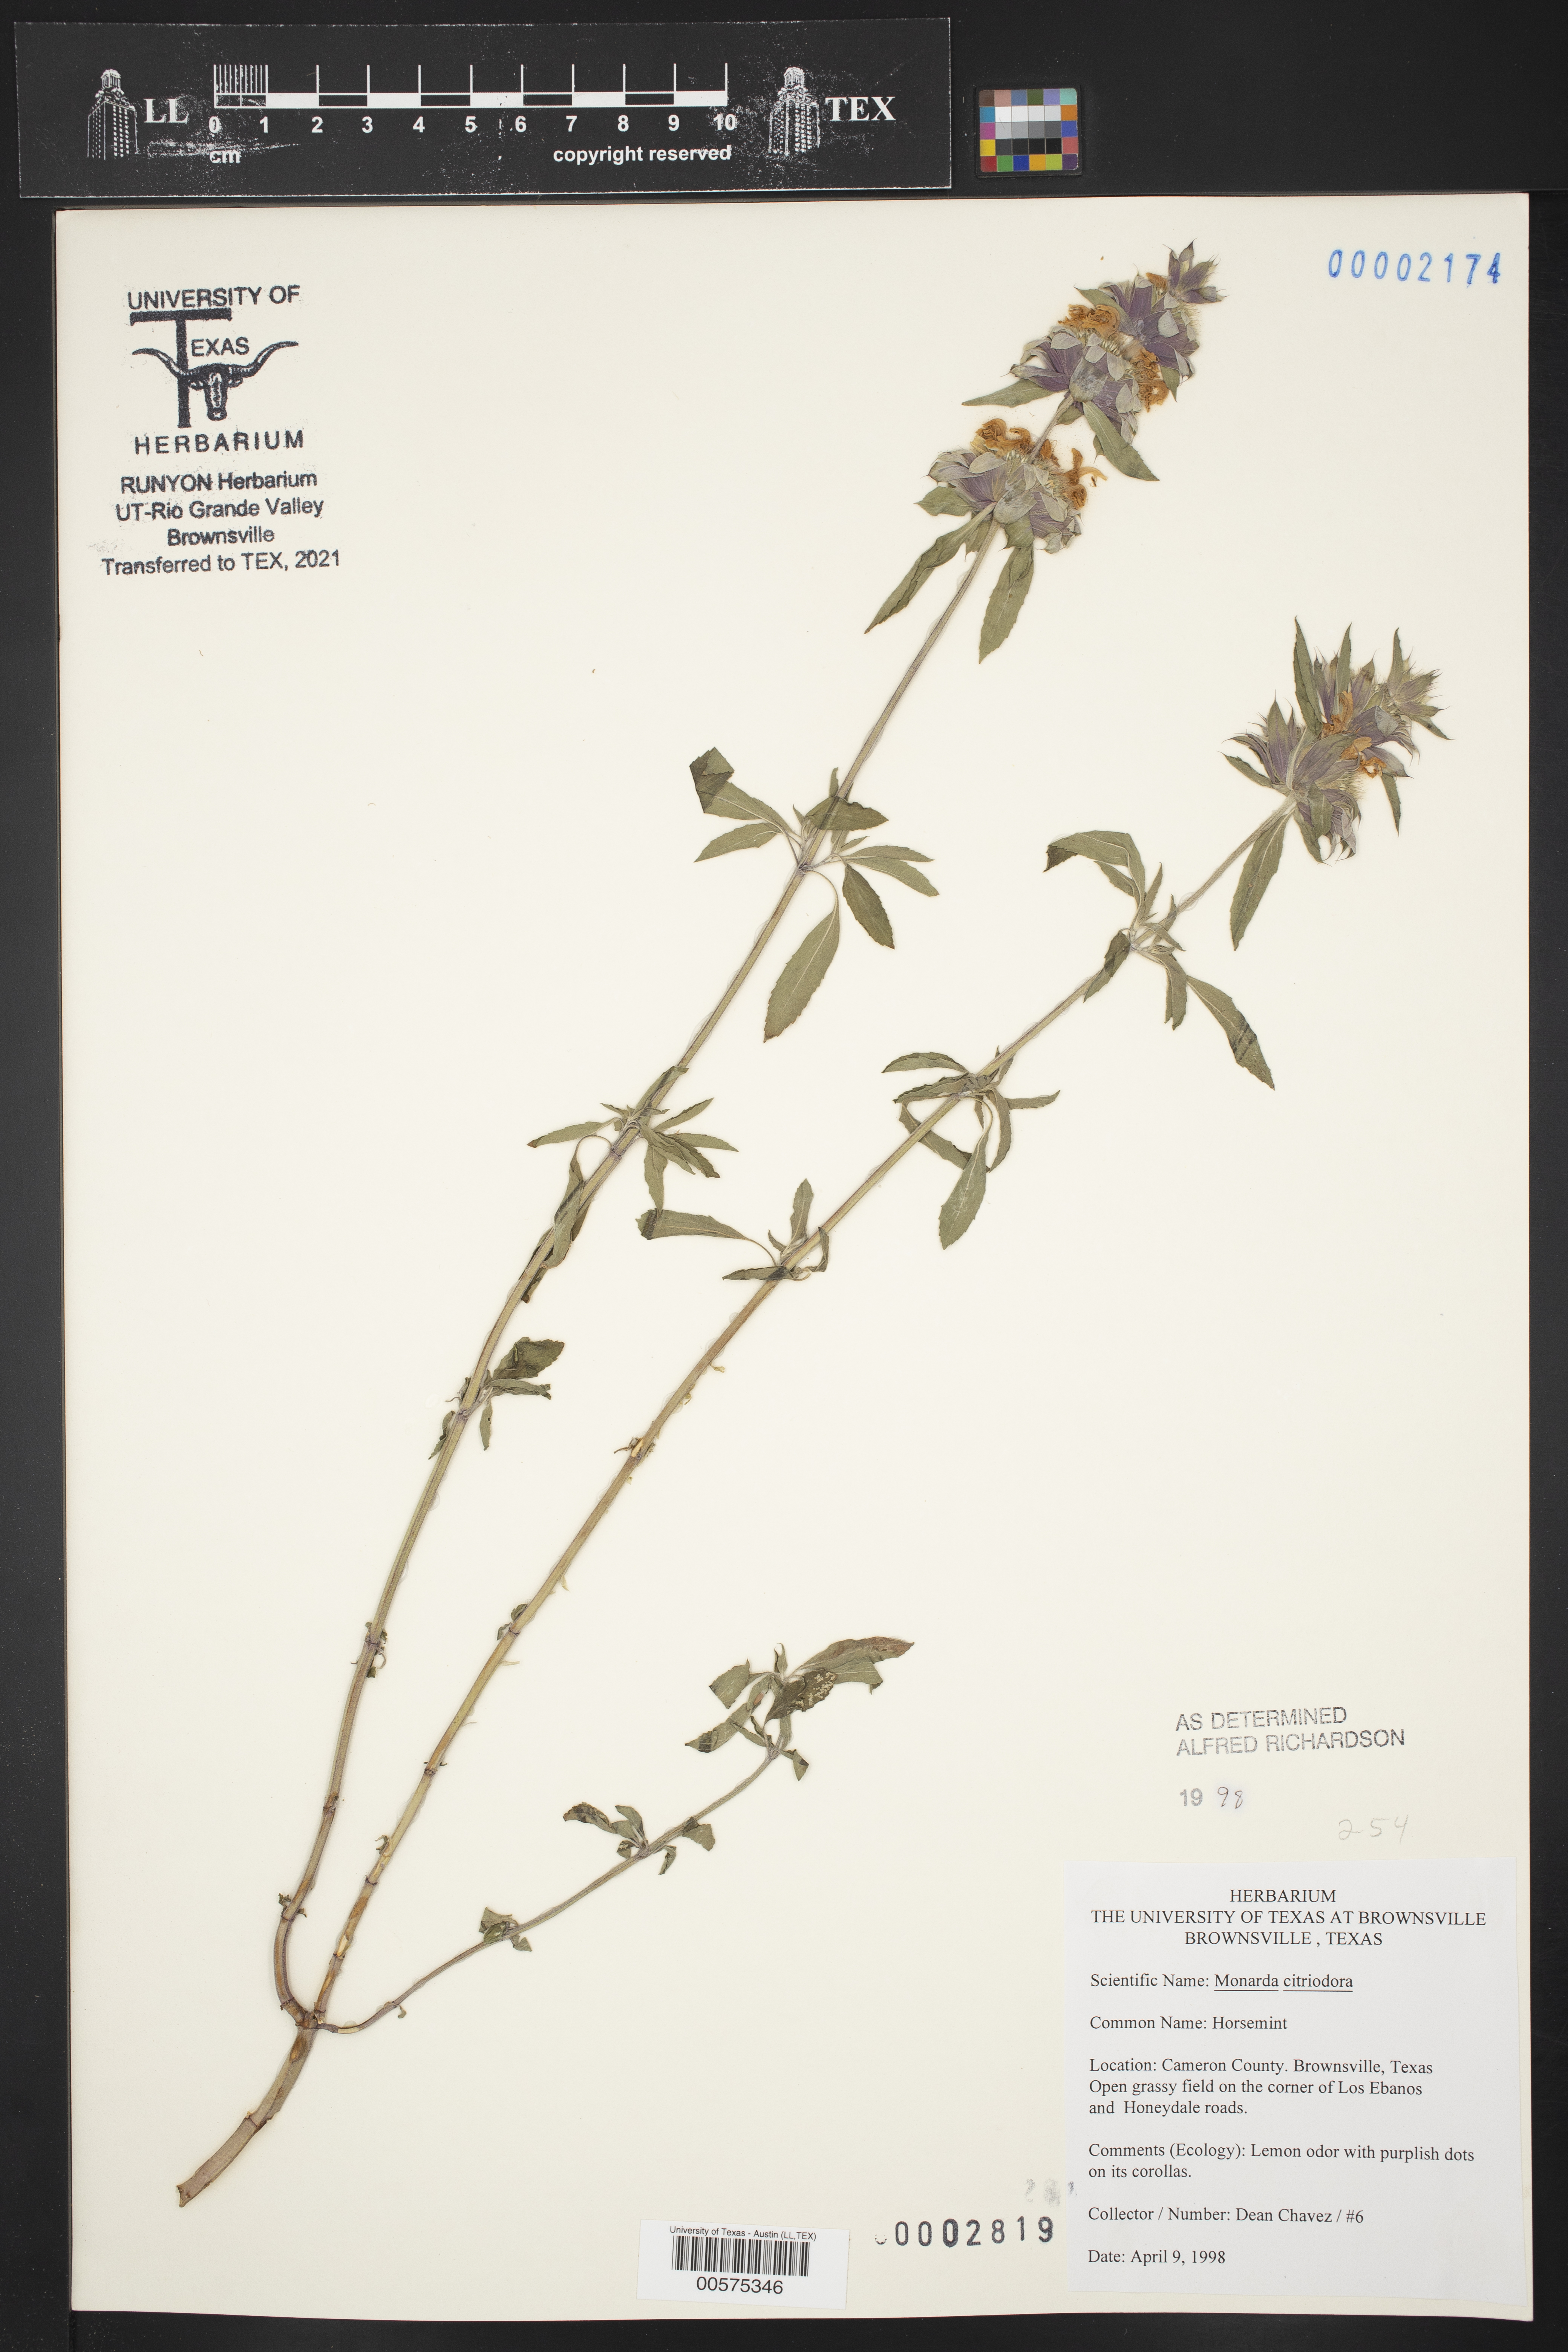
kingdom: Plantae
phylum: Tracheophyta
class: Magnoliopsida
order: Lamiales
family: Lamiaceae
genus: Monarda
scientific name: Monarda citriodora
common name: Lemon beebalm
